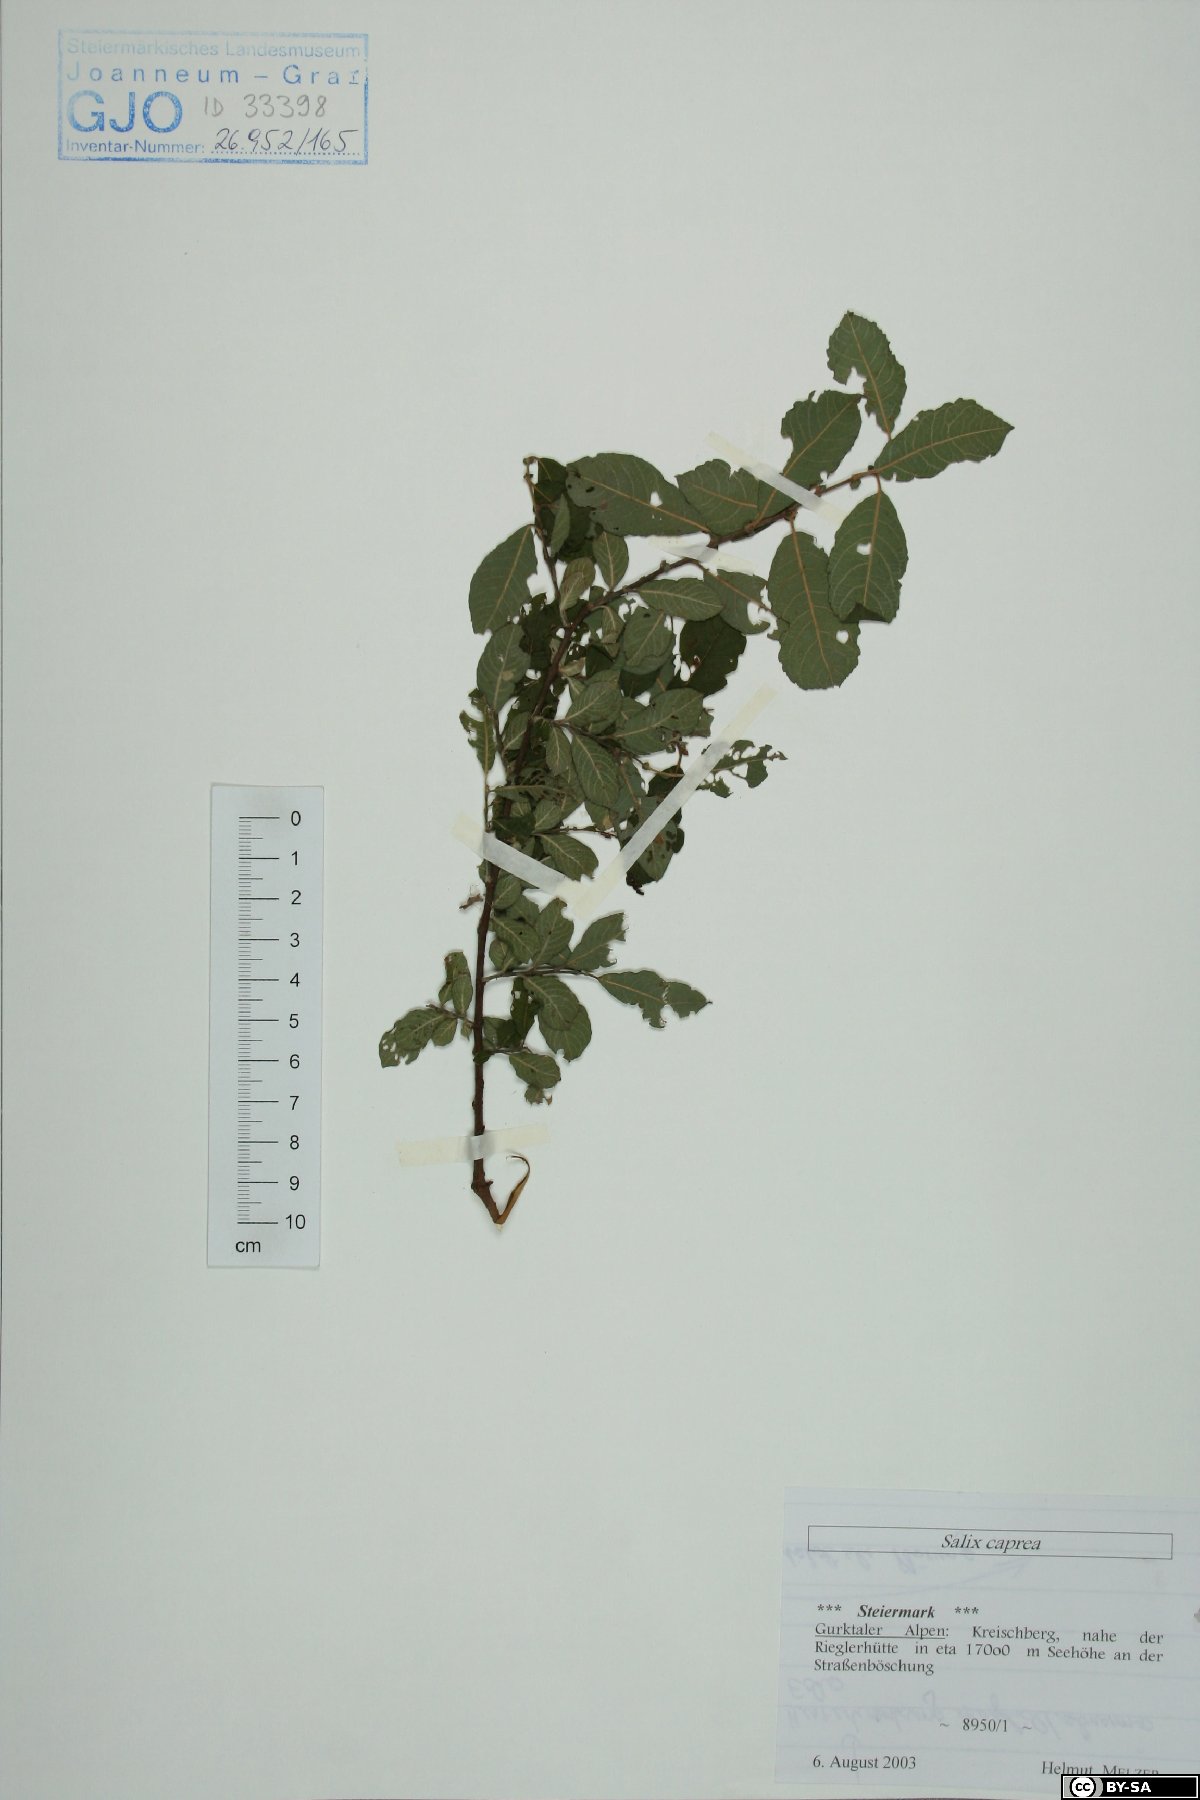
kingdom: Plantae
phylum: Tracheophyta
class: Magnoliopsida
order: Malpighiales
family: Salicaceae
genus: Salix
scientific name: Salix caprea
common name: Goat willow
